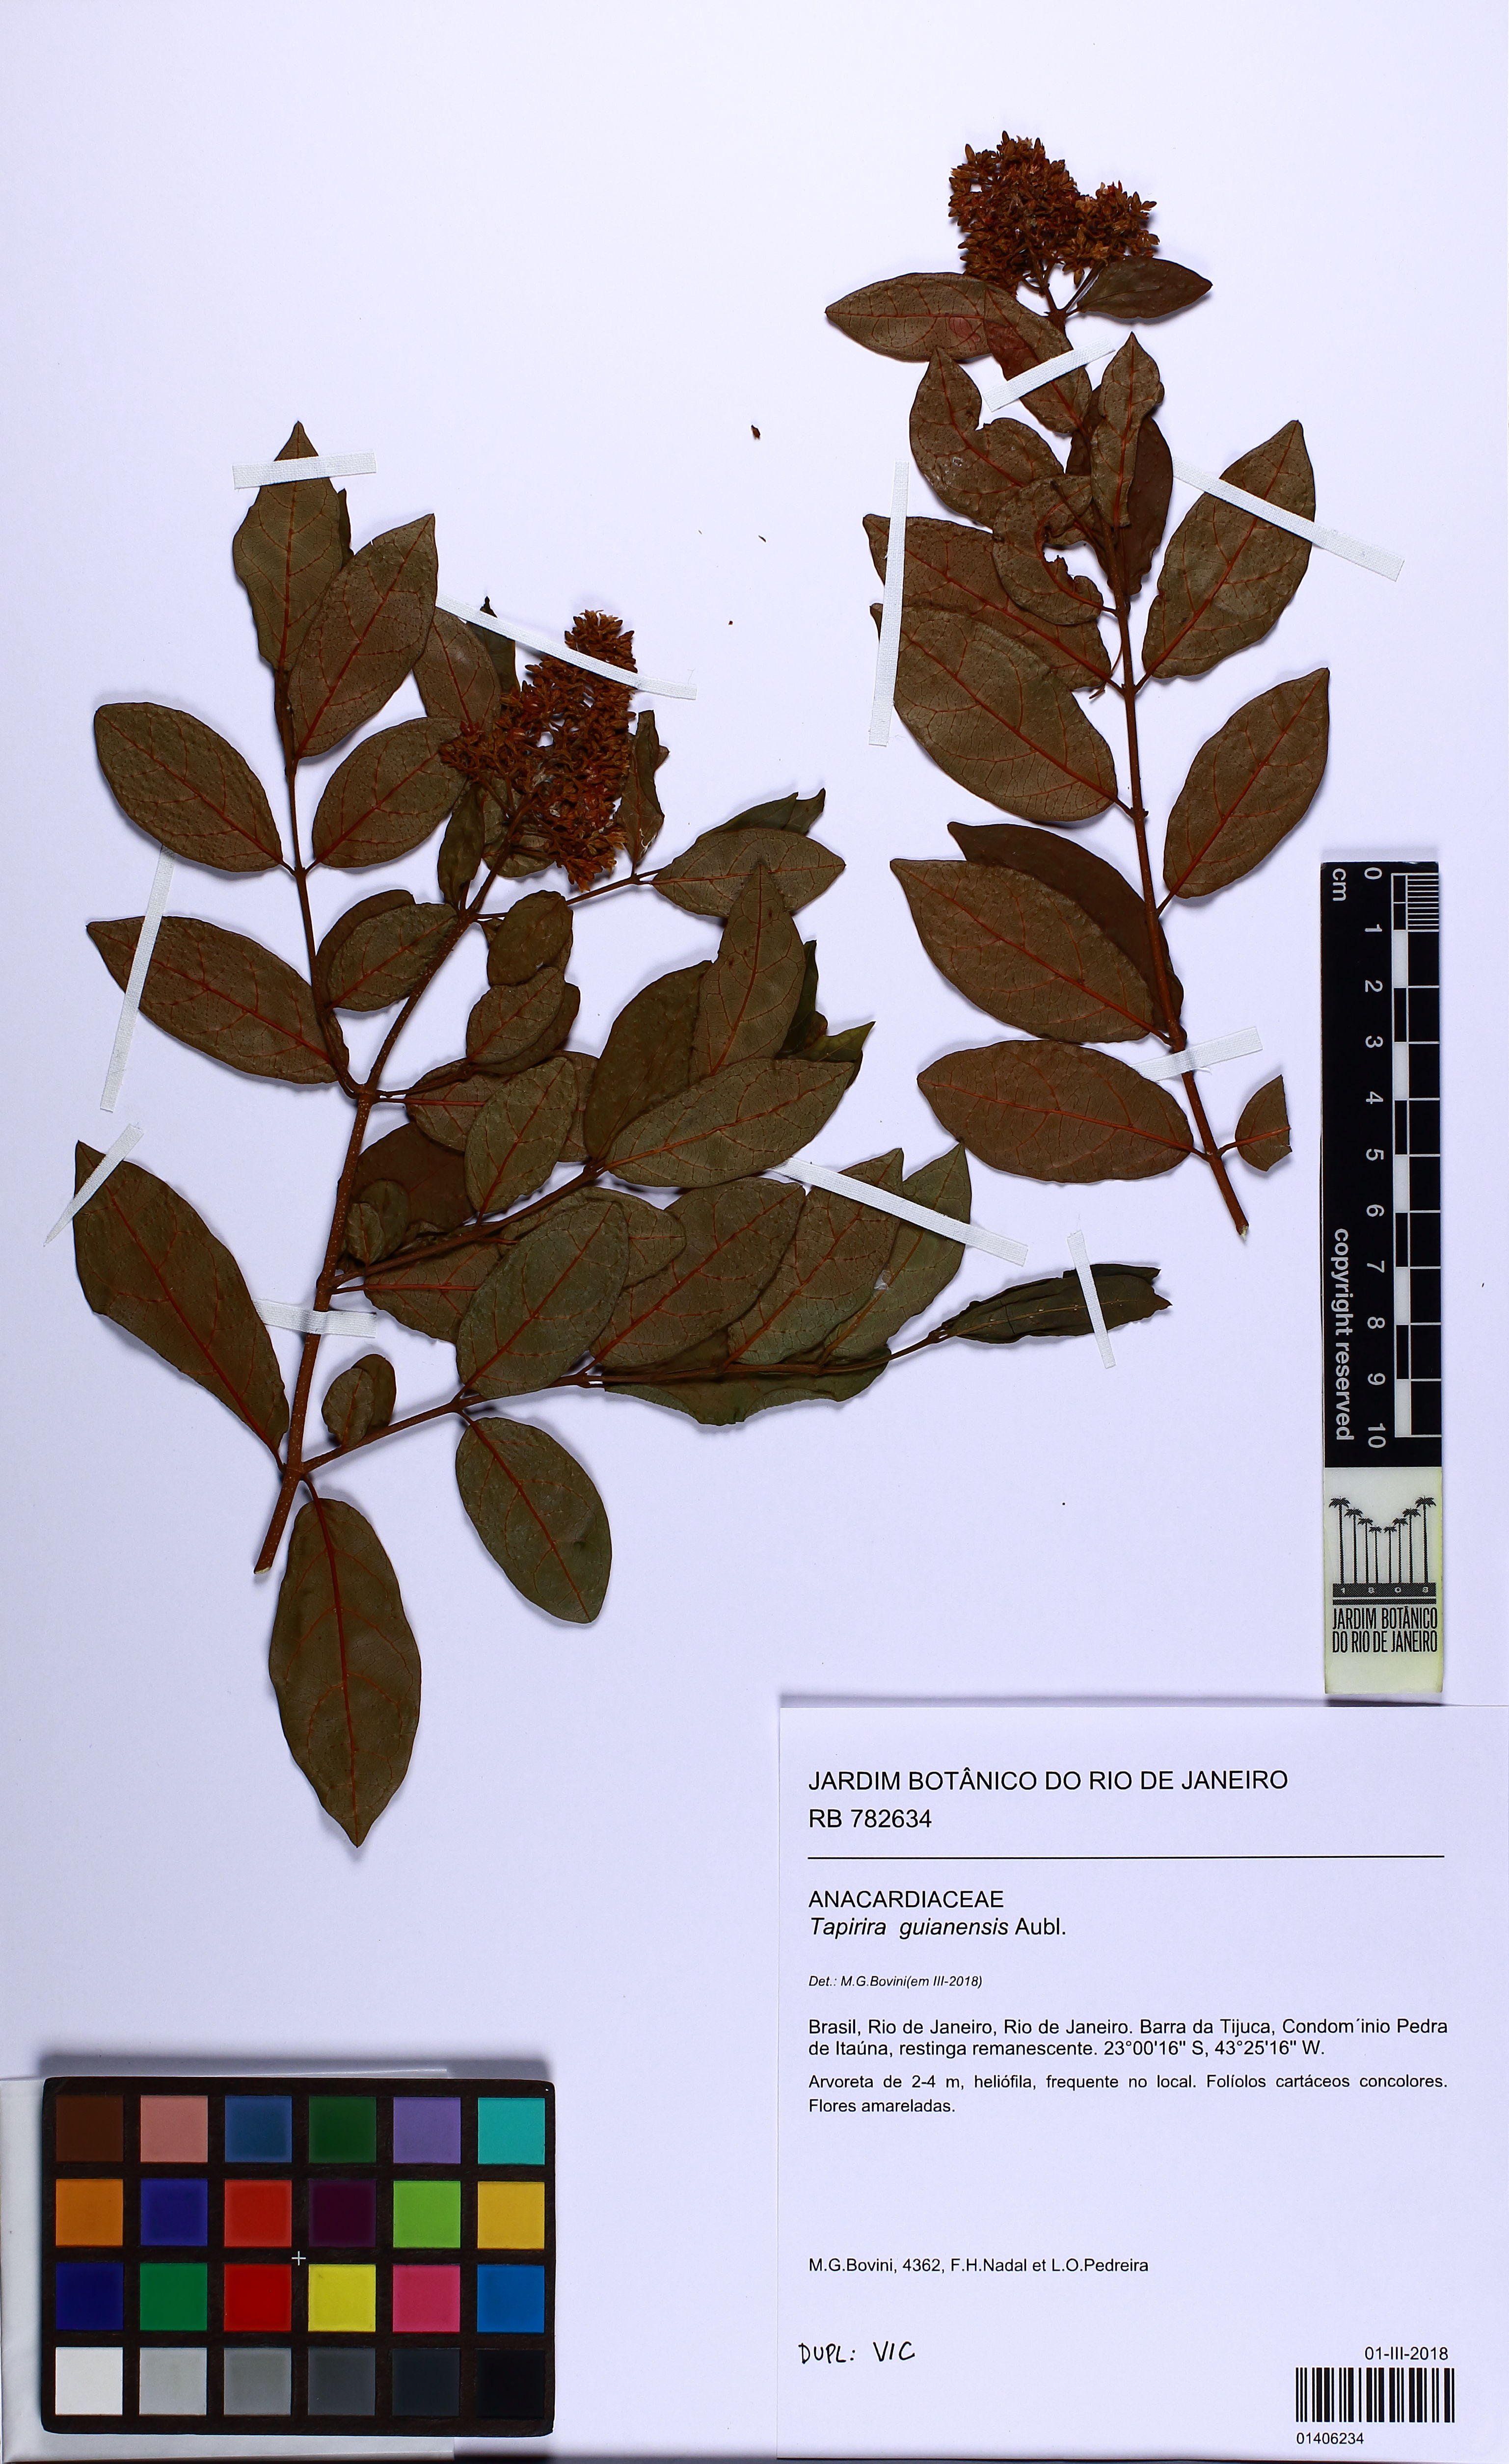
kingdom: Plantae
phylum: Tracheophyta
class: Magnoliopsida
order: Sapindales
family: Anacardiaceae
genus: Tapirira
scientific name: Tapirira guianensis
